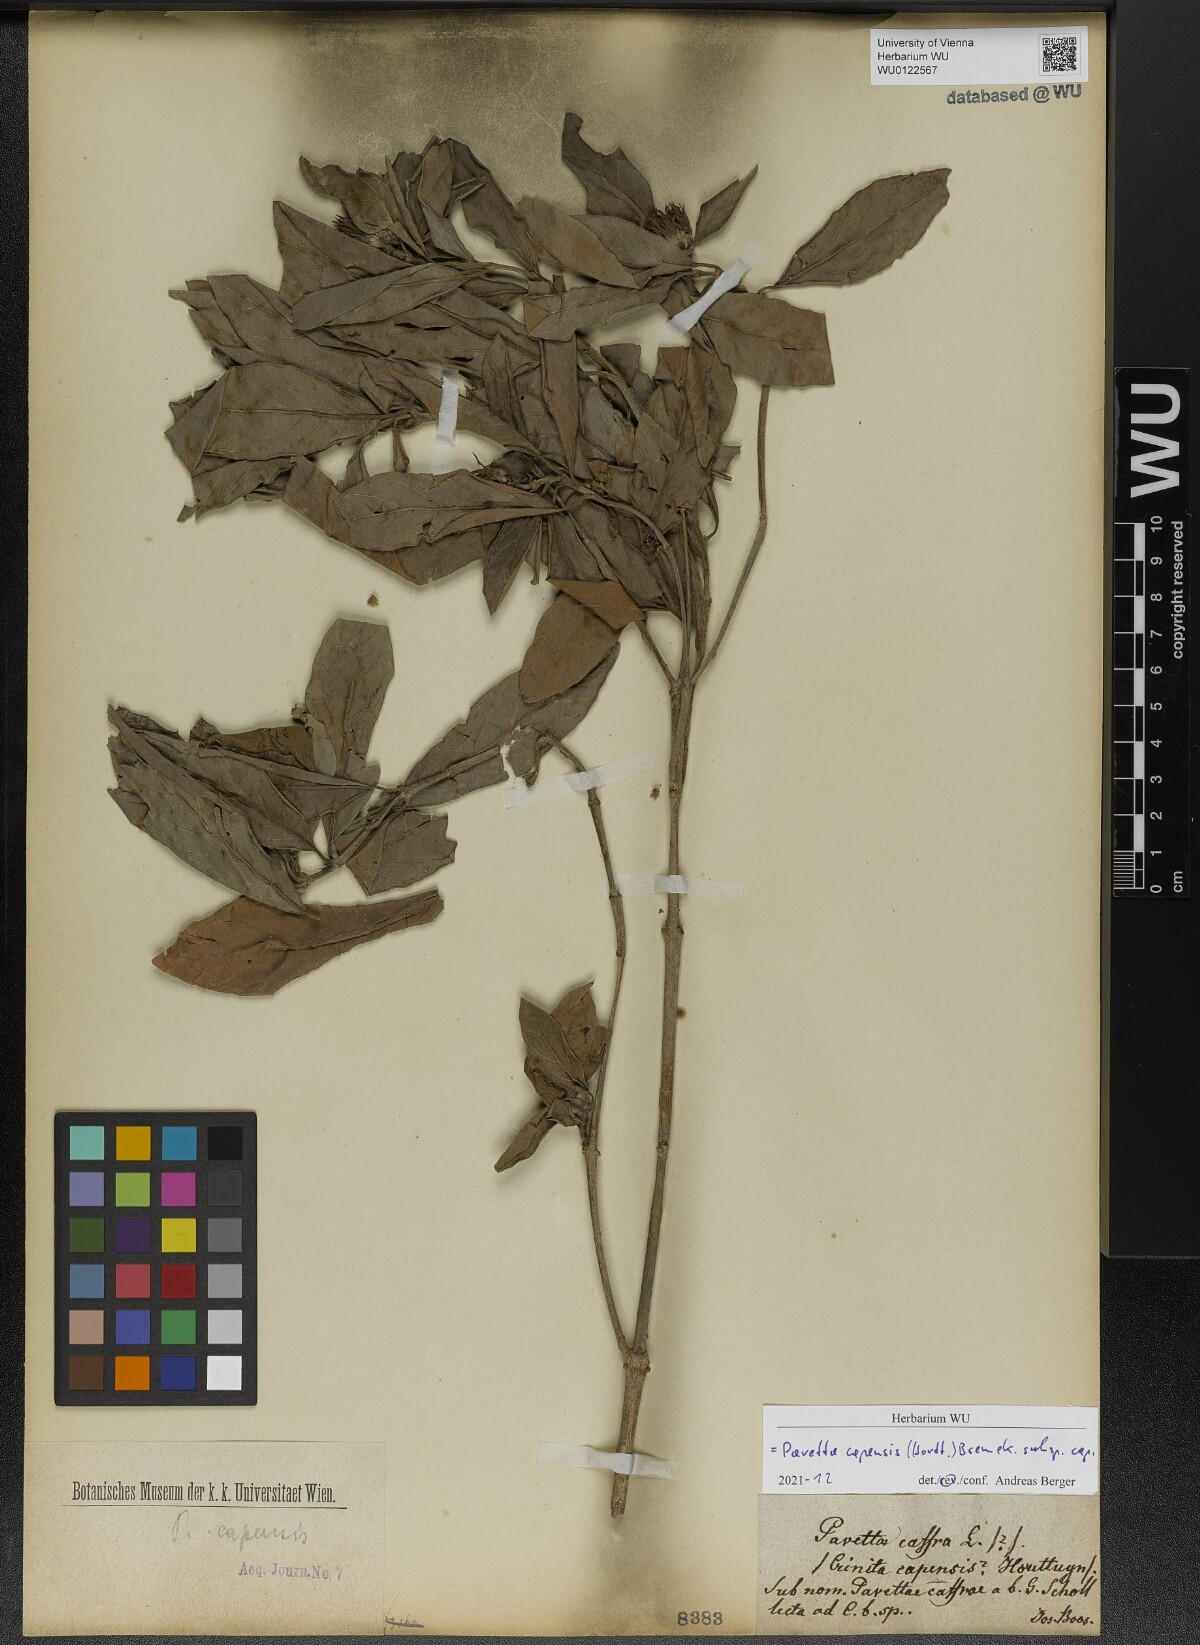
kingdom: Plantae
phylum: Tracheophyta
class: Magnoliopsida
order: Gentianales
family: Rubiaceae
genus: Pavetta
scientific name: Pavetta capensis
